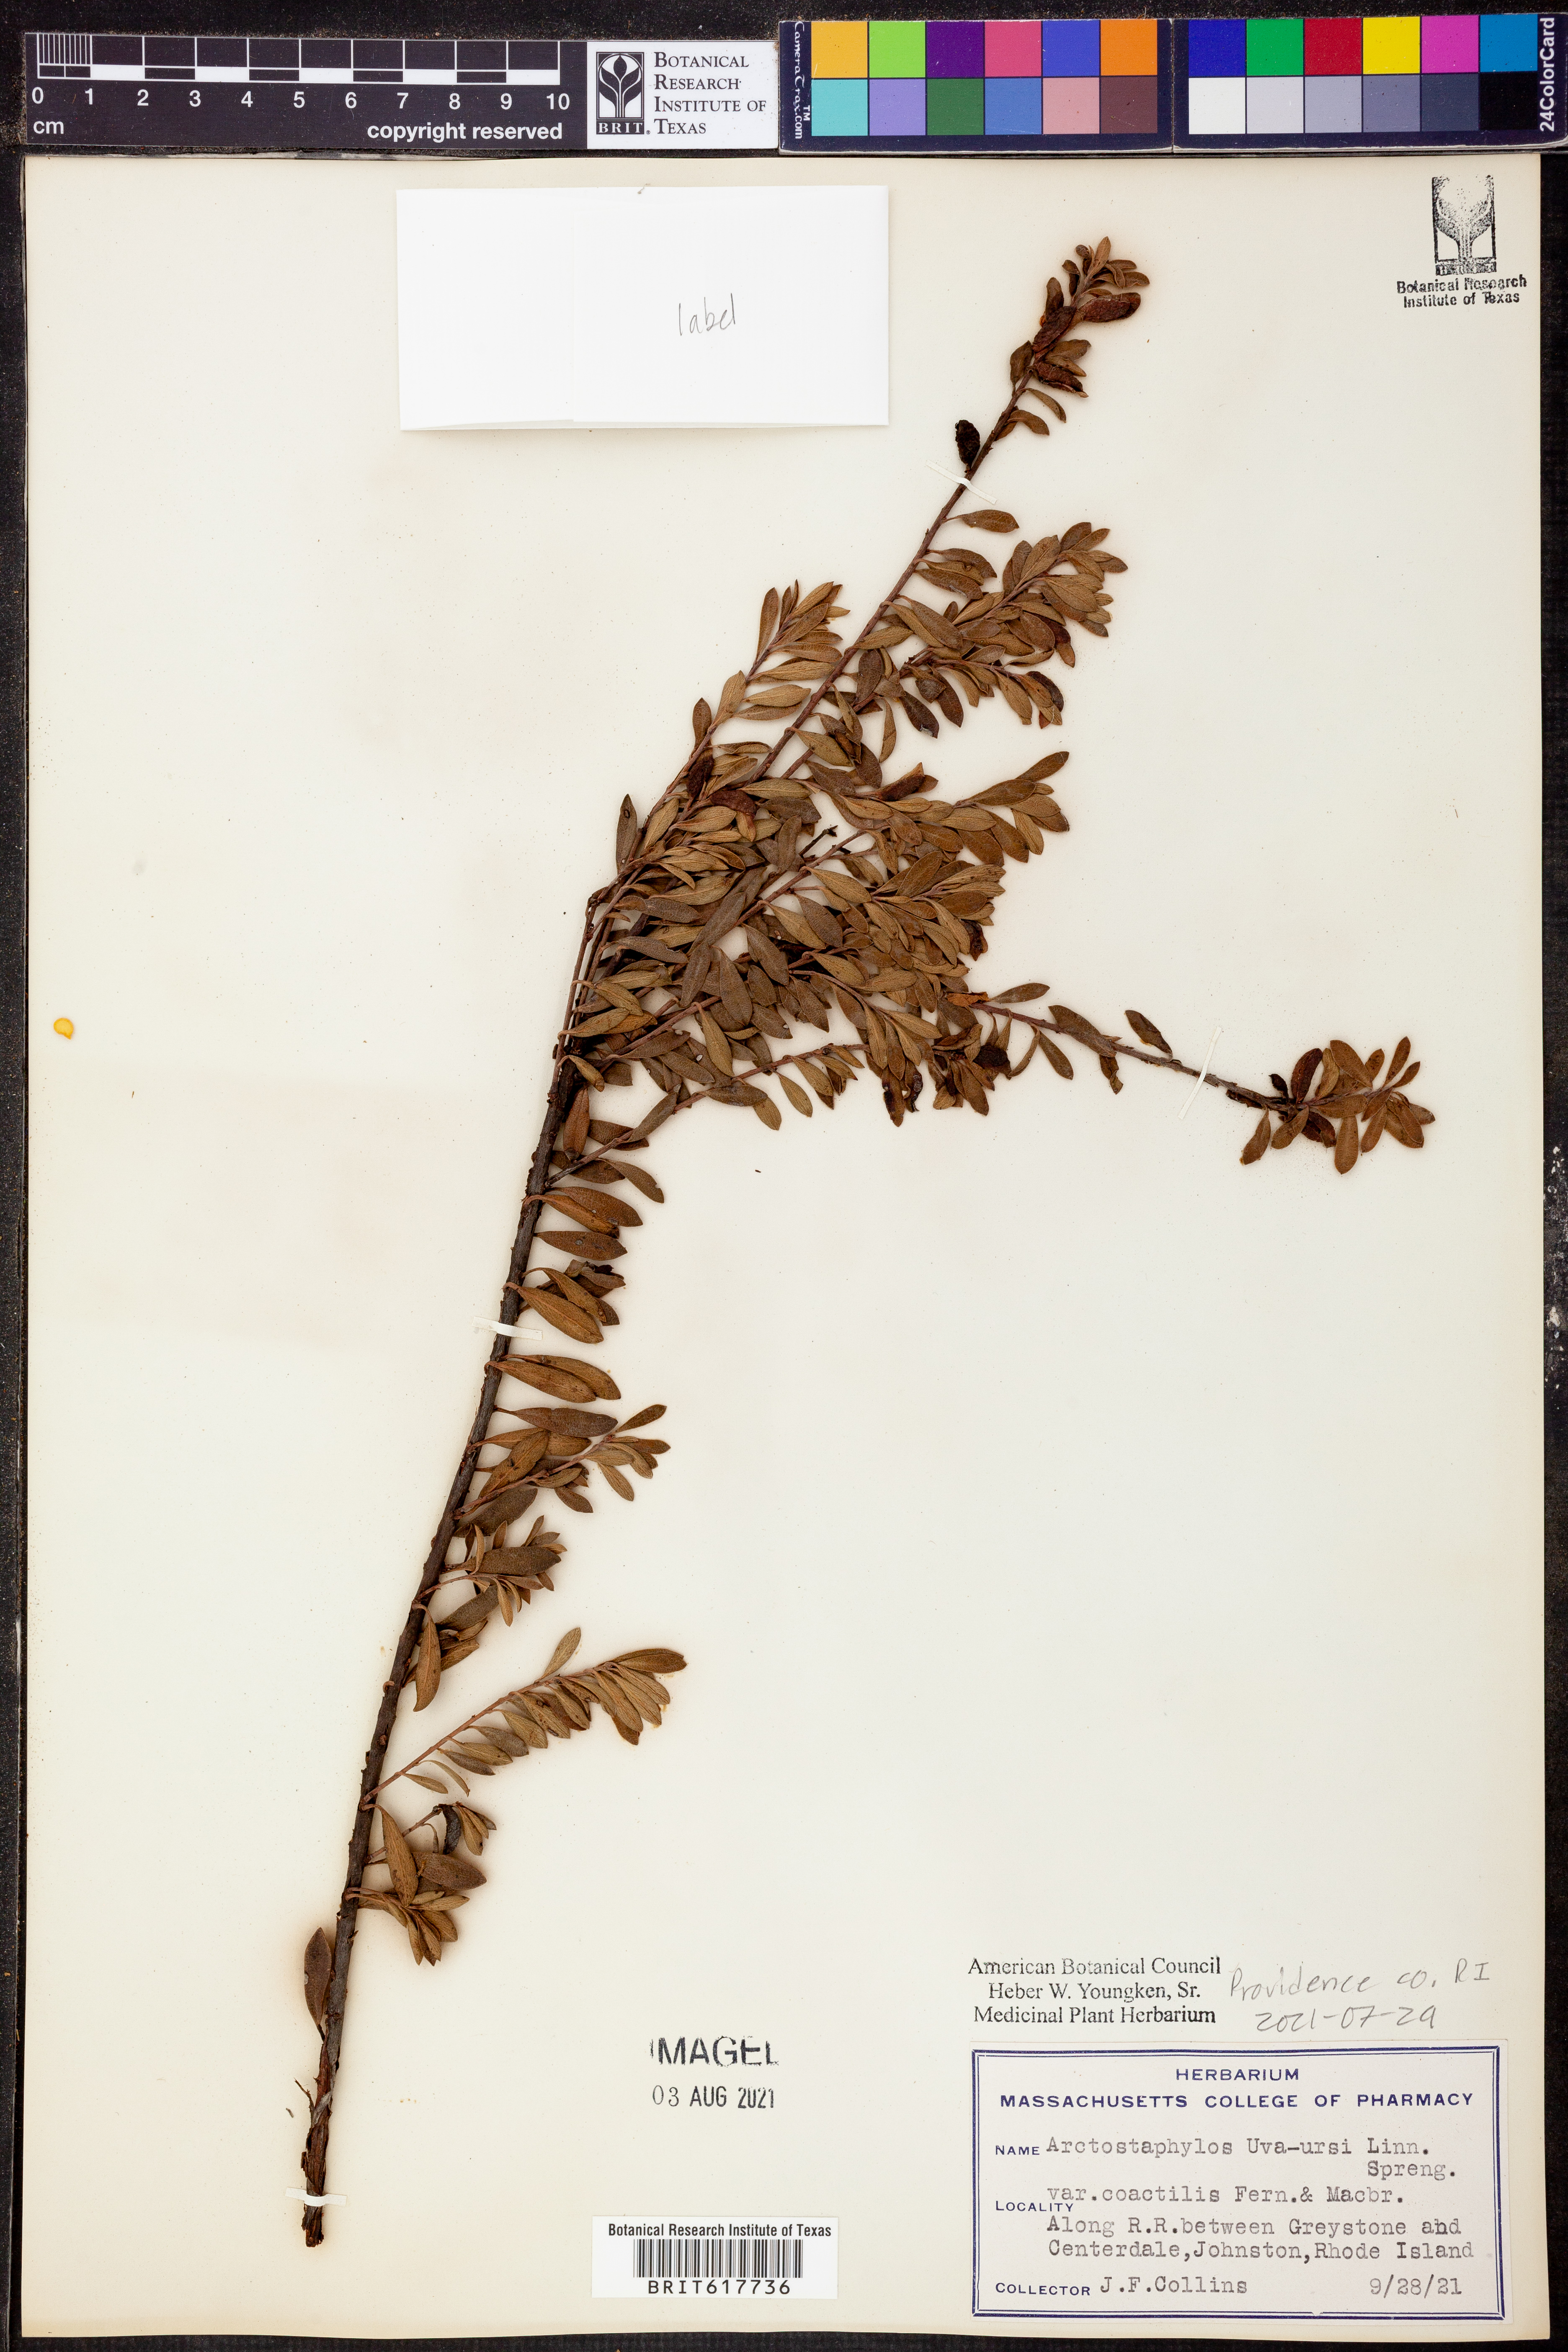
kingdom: Plantae
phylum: Tracheophyta
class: Magnoliopsida
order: Ericales
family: Ericaceae
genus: Arctostaphylos
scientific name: Arctostaphylos uva-ursi
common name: Bearberry
